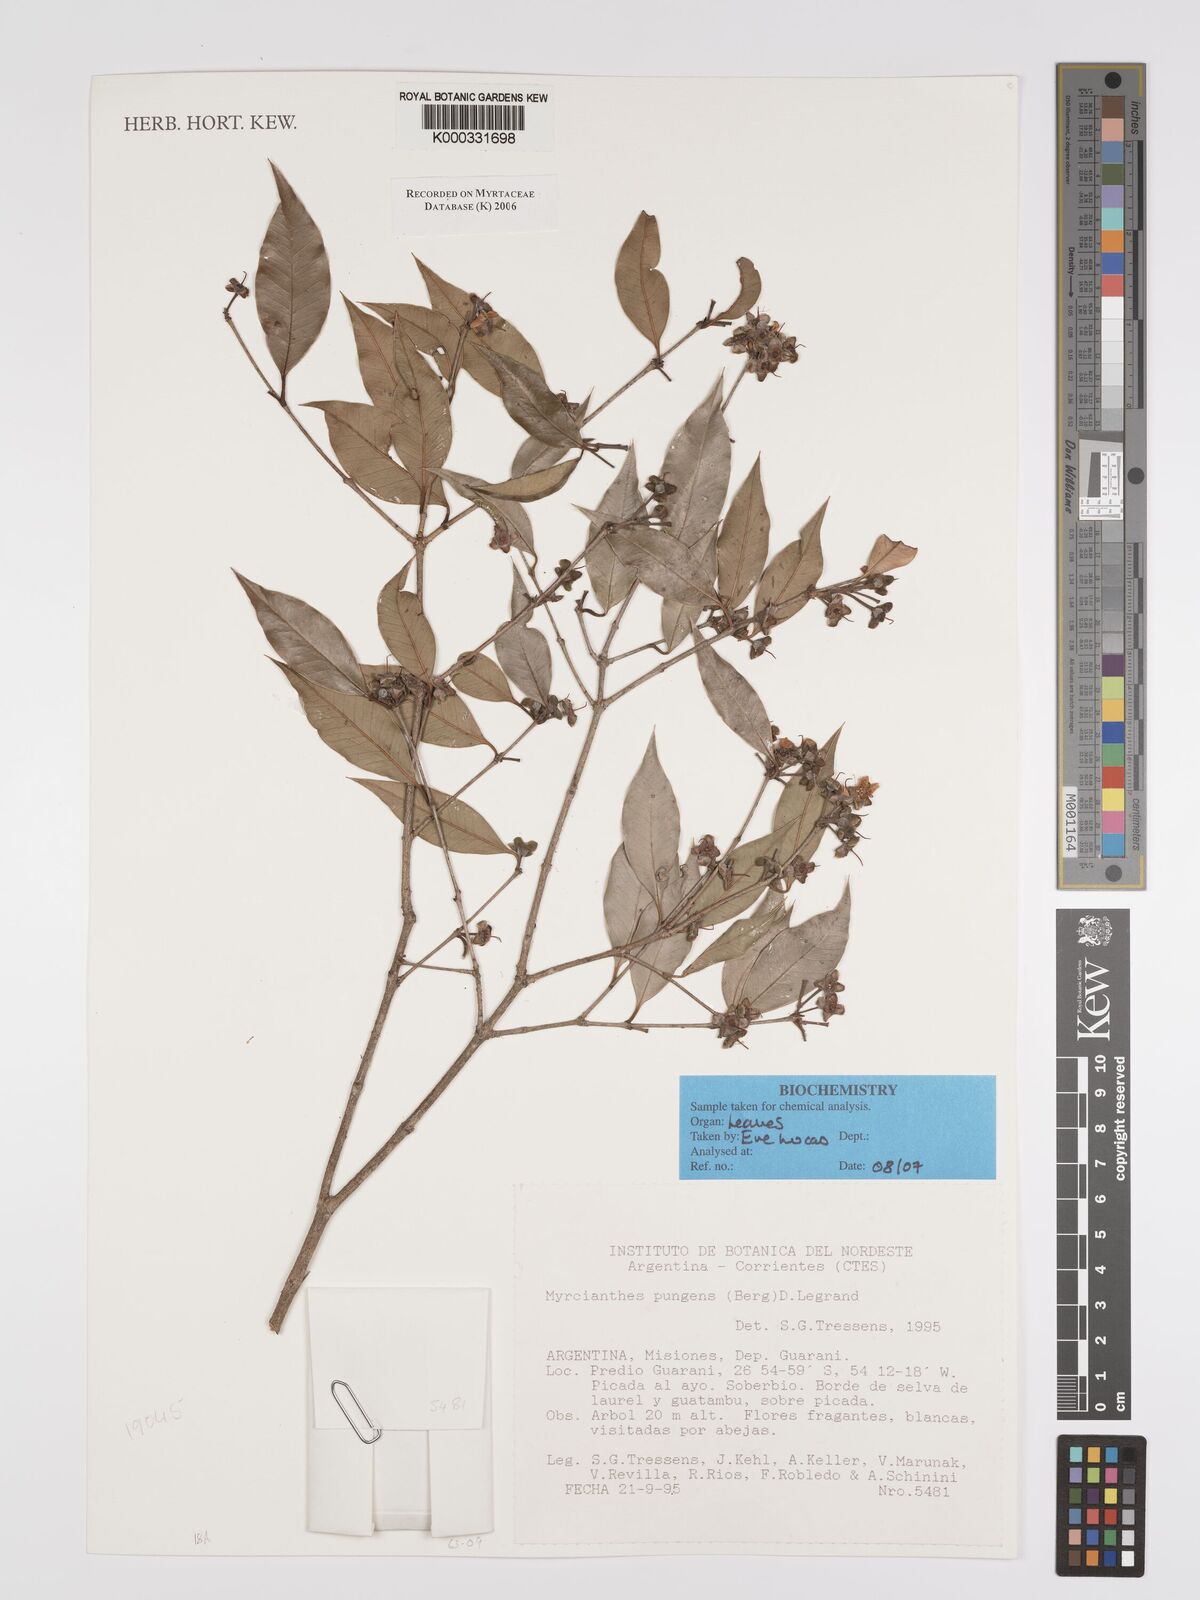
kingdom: Plantae
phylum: Tracheophyta
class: Magnoliopsida
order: Myrtales
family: Myrtaceae
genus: Myrcianthes
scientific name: Myrcianthes pungens
